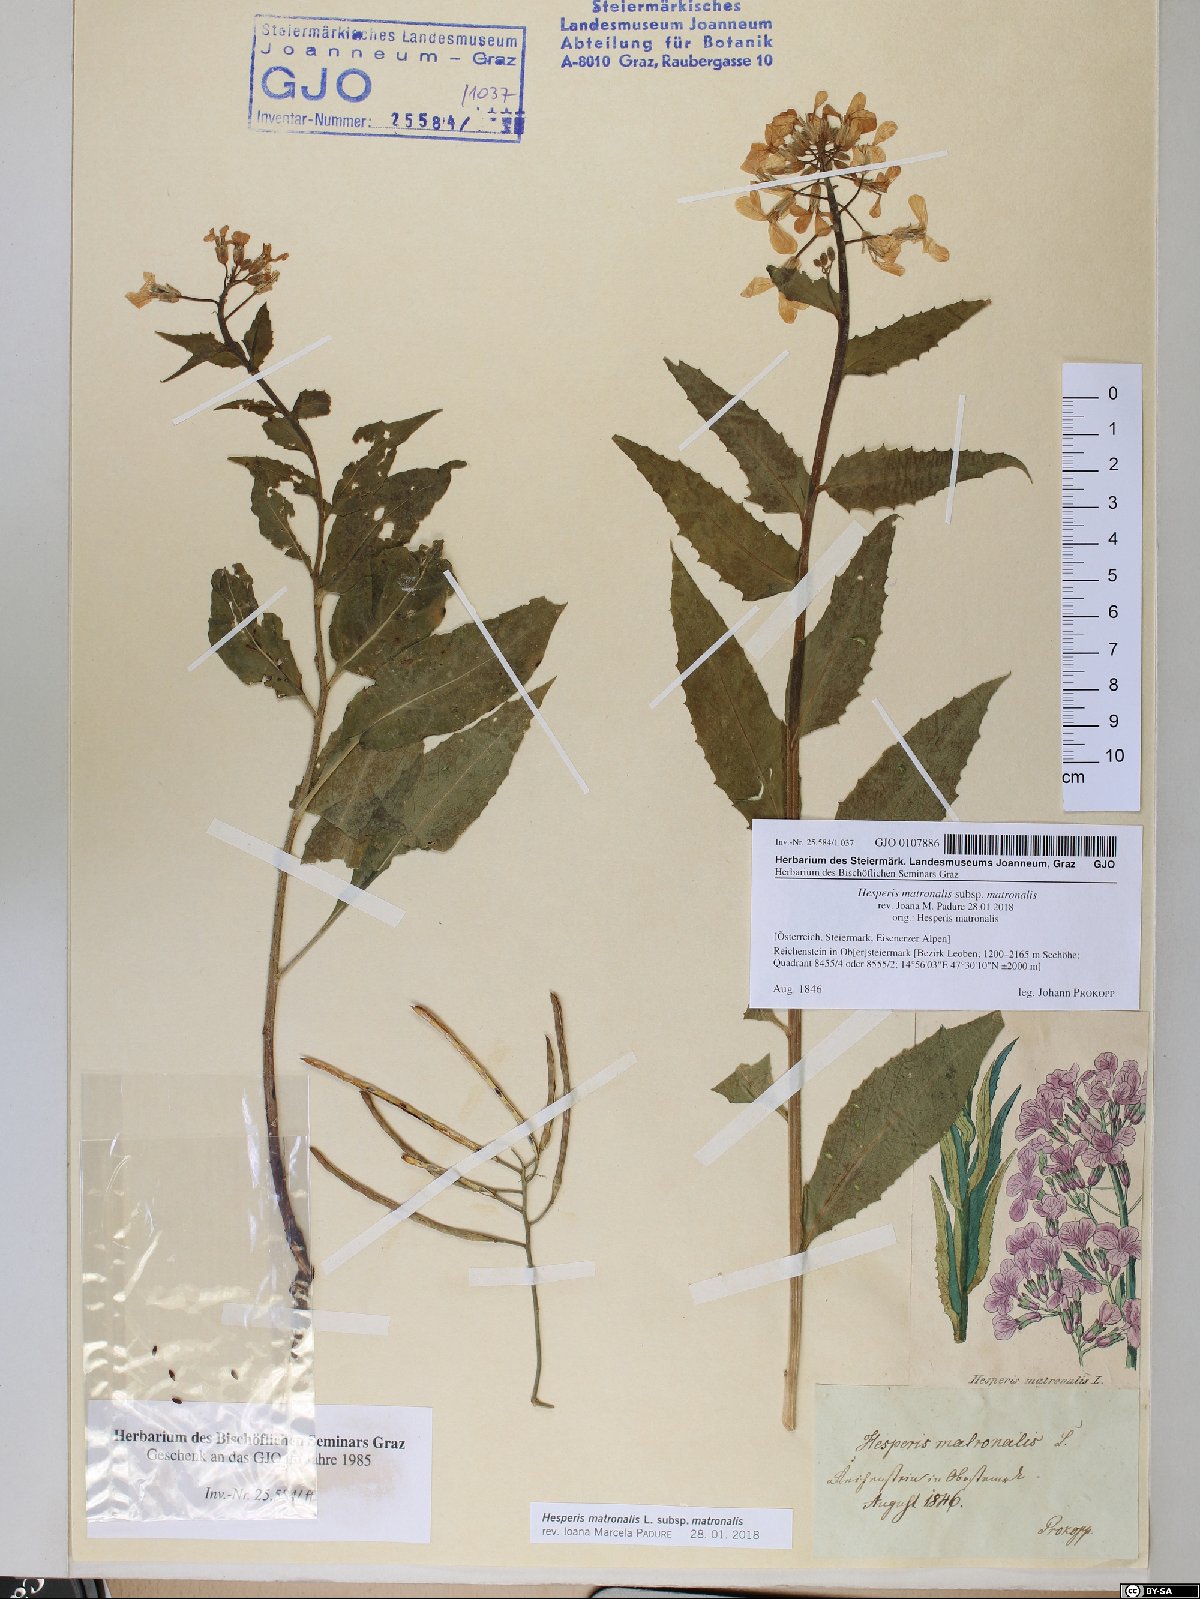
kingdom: Plantae
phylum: Tracheophyta
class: Magnoliopsida
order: Brassicales
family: Brassicaceae
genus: Hesperis
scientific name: Hesperis matronalis
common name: Dame's-violet
